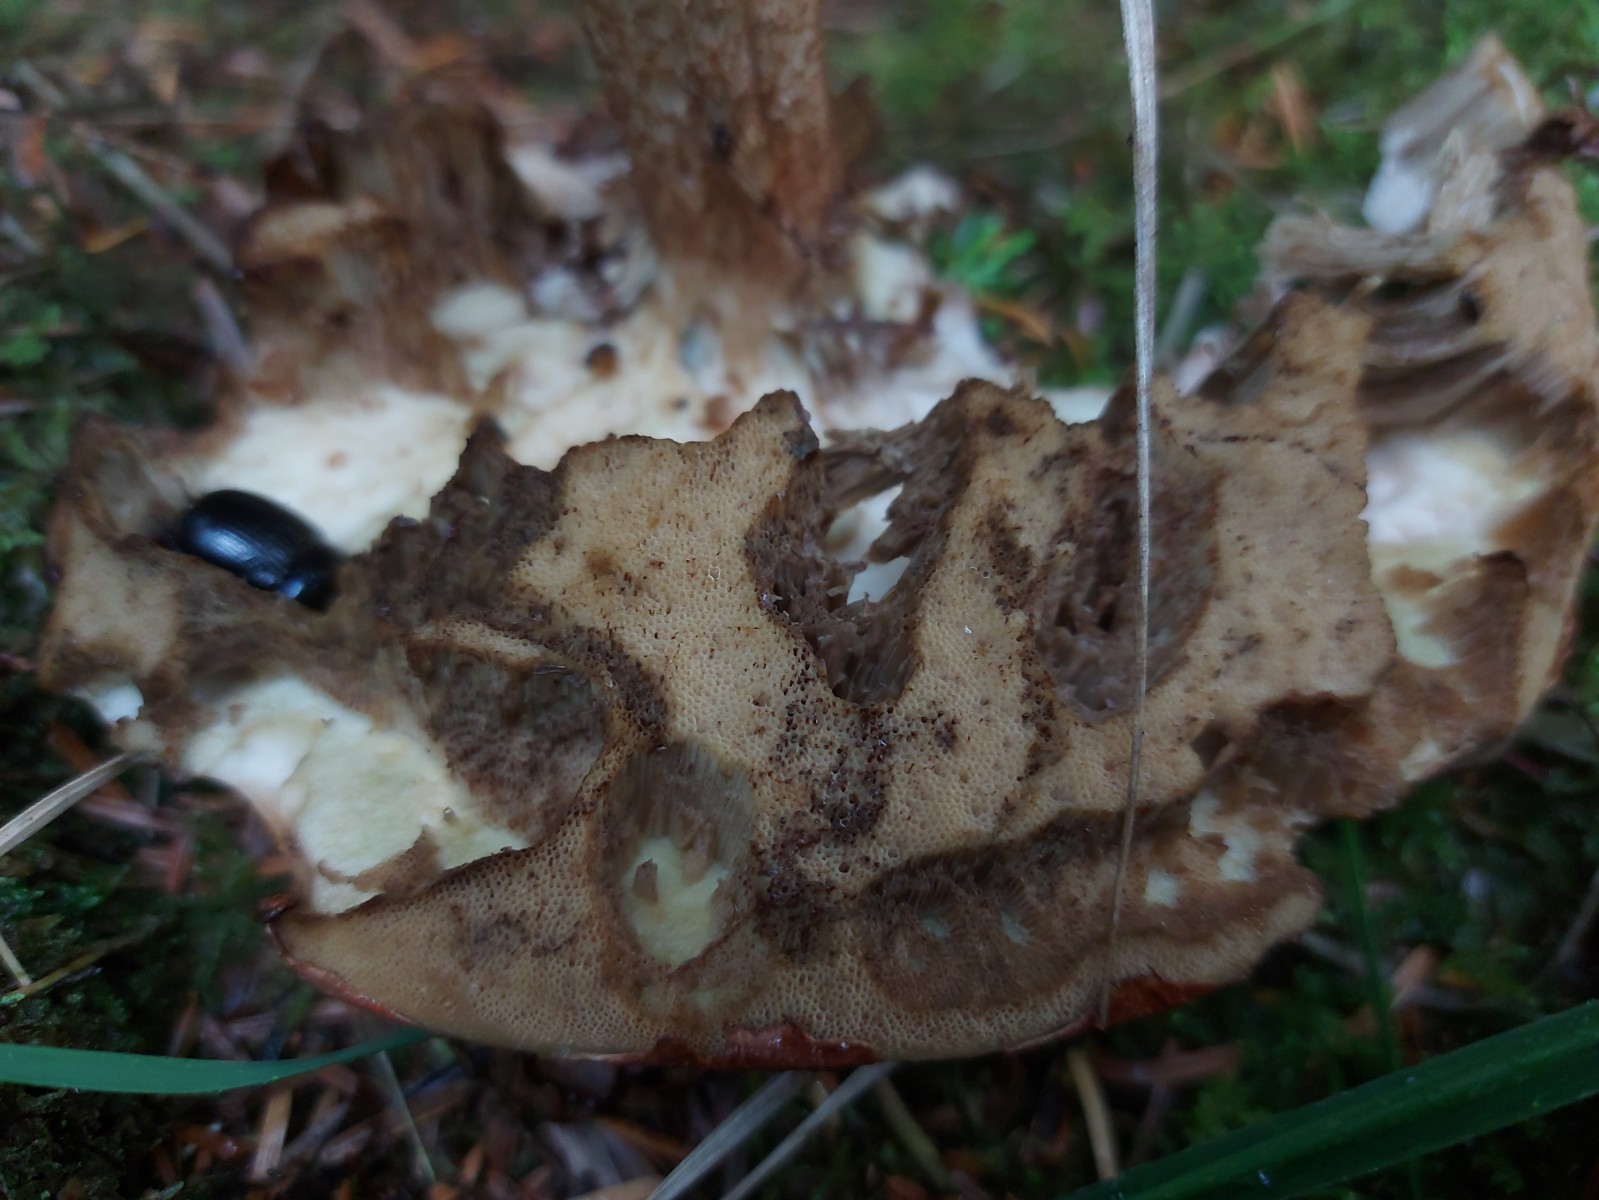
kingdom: Fungi
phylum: Basidiomycota
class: Agaricomycetes
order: Boletales
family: Boletaceae
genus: Leccinum
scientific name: Leccinum vulpinum
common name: fyrre-skælrørhat
